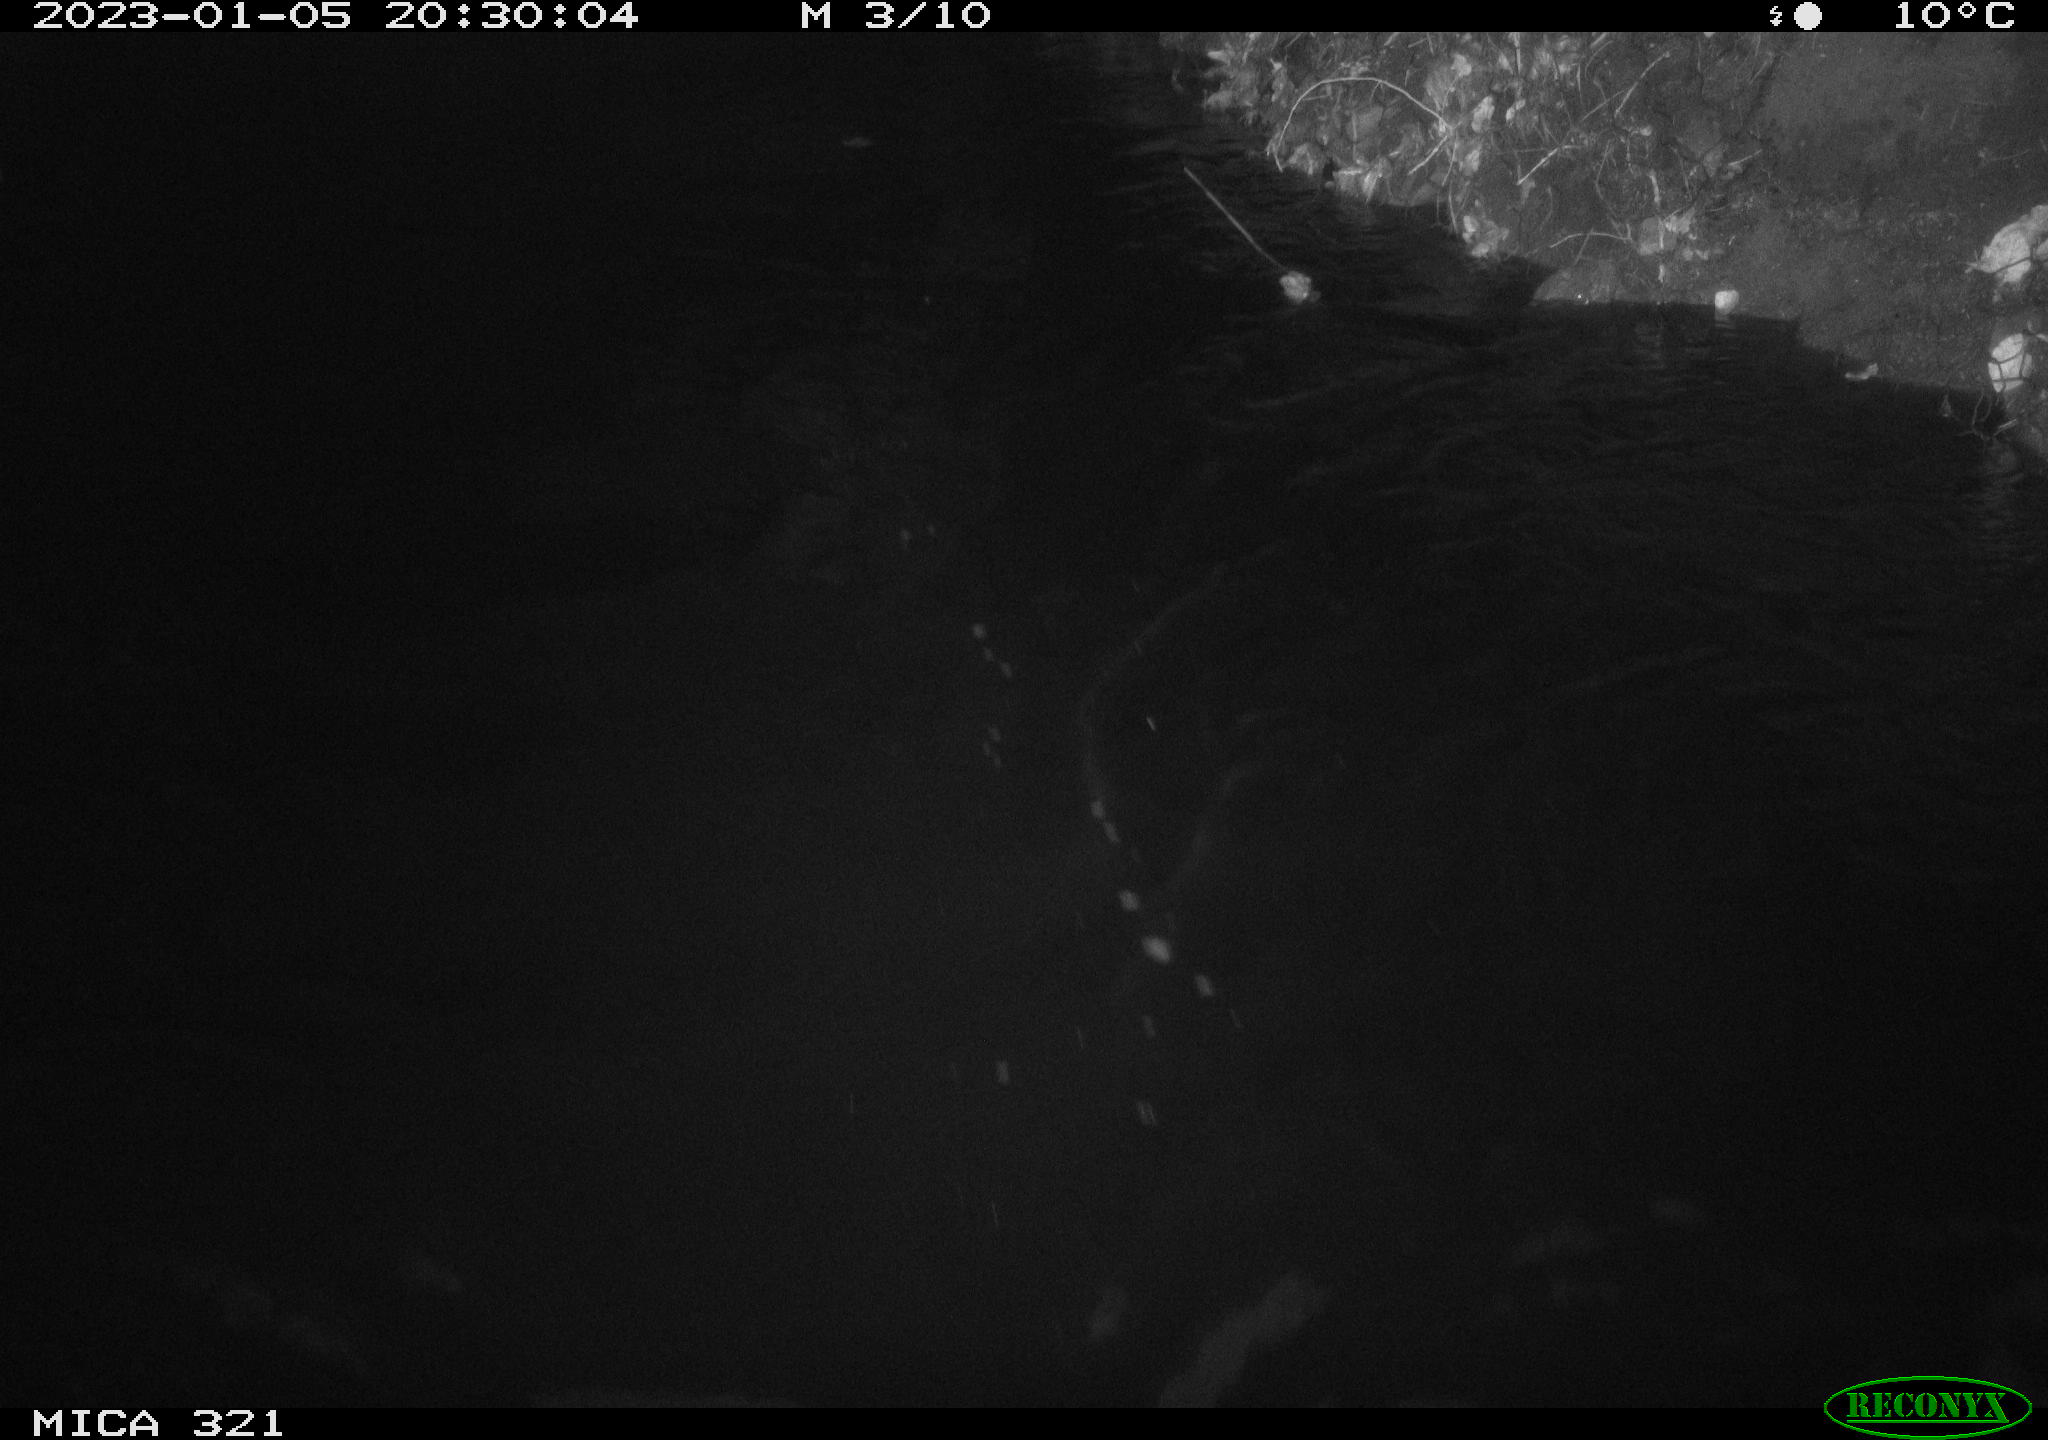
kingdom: Animalia
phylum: Chordata
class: Aves
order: Anseriformes
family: Anatidae
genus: Anas
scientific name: Anas
